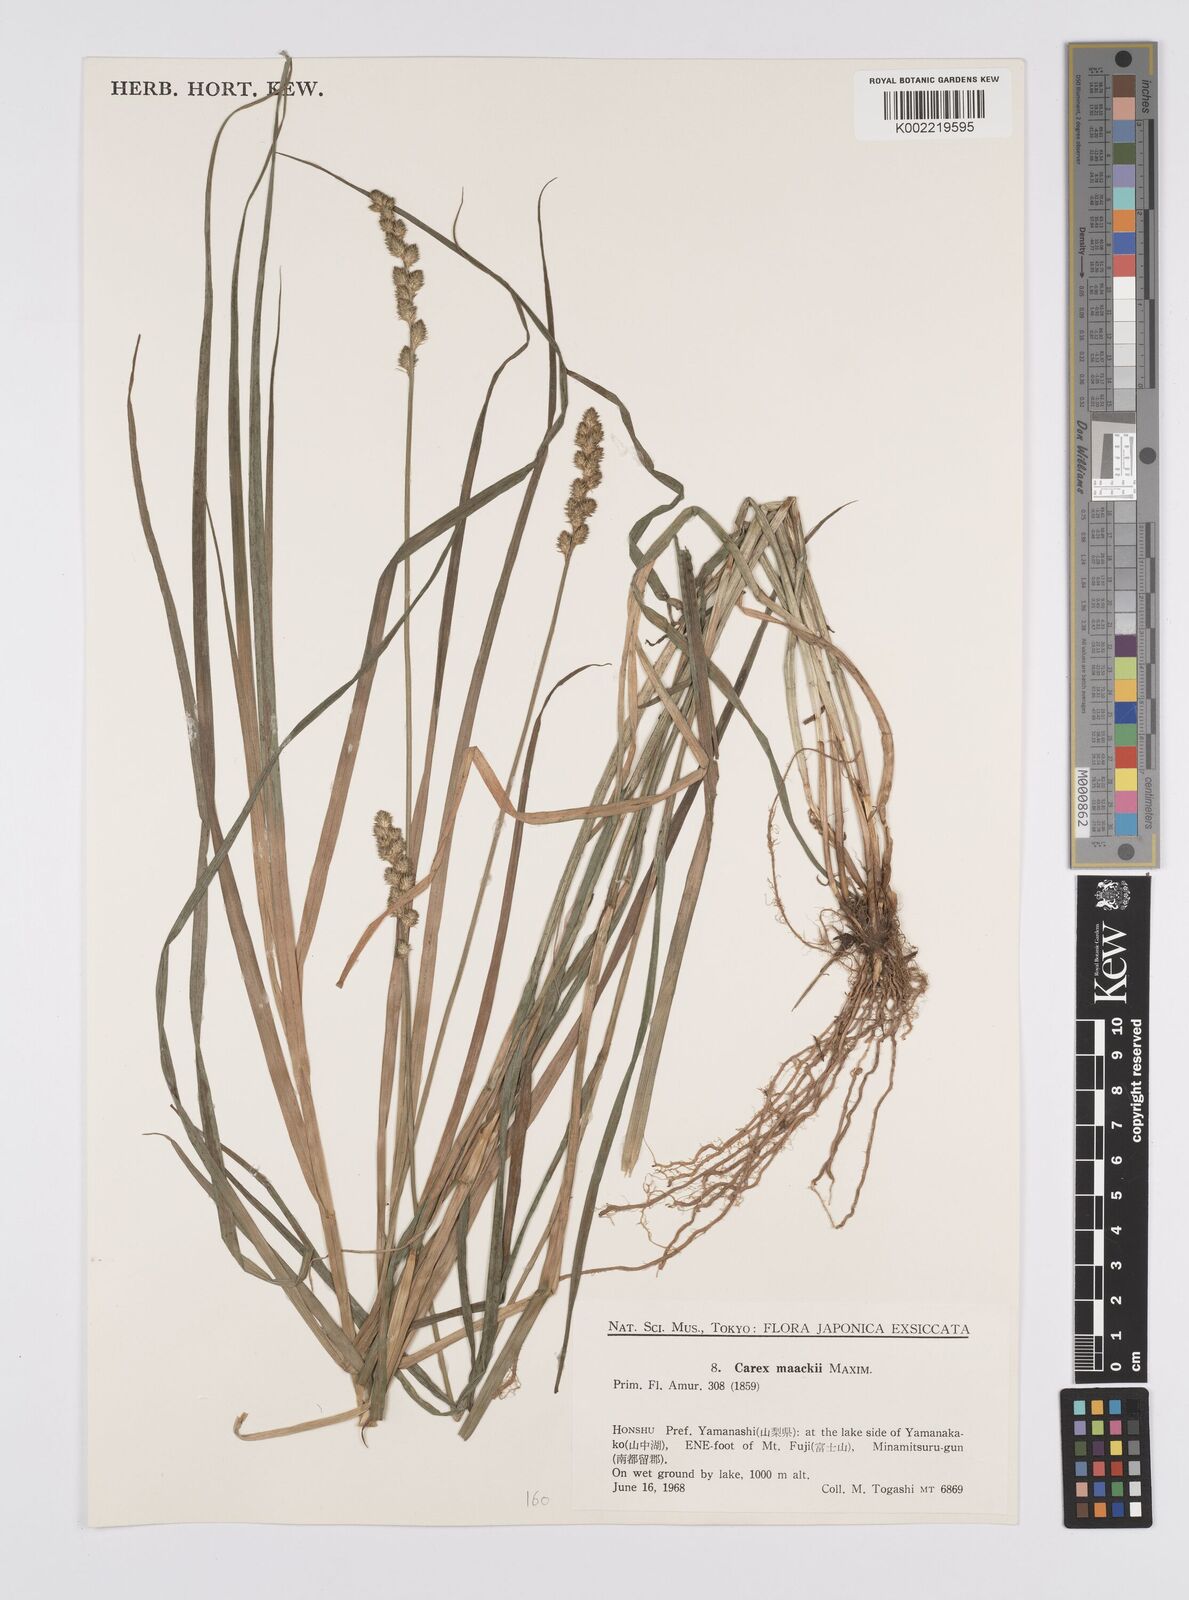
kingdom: Plantae
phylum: Tracheophyta
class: Liliopsida
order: Poales
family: Cyperaceae
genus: Carex
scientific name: Carex maackii
